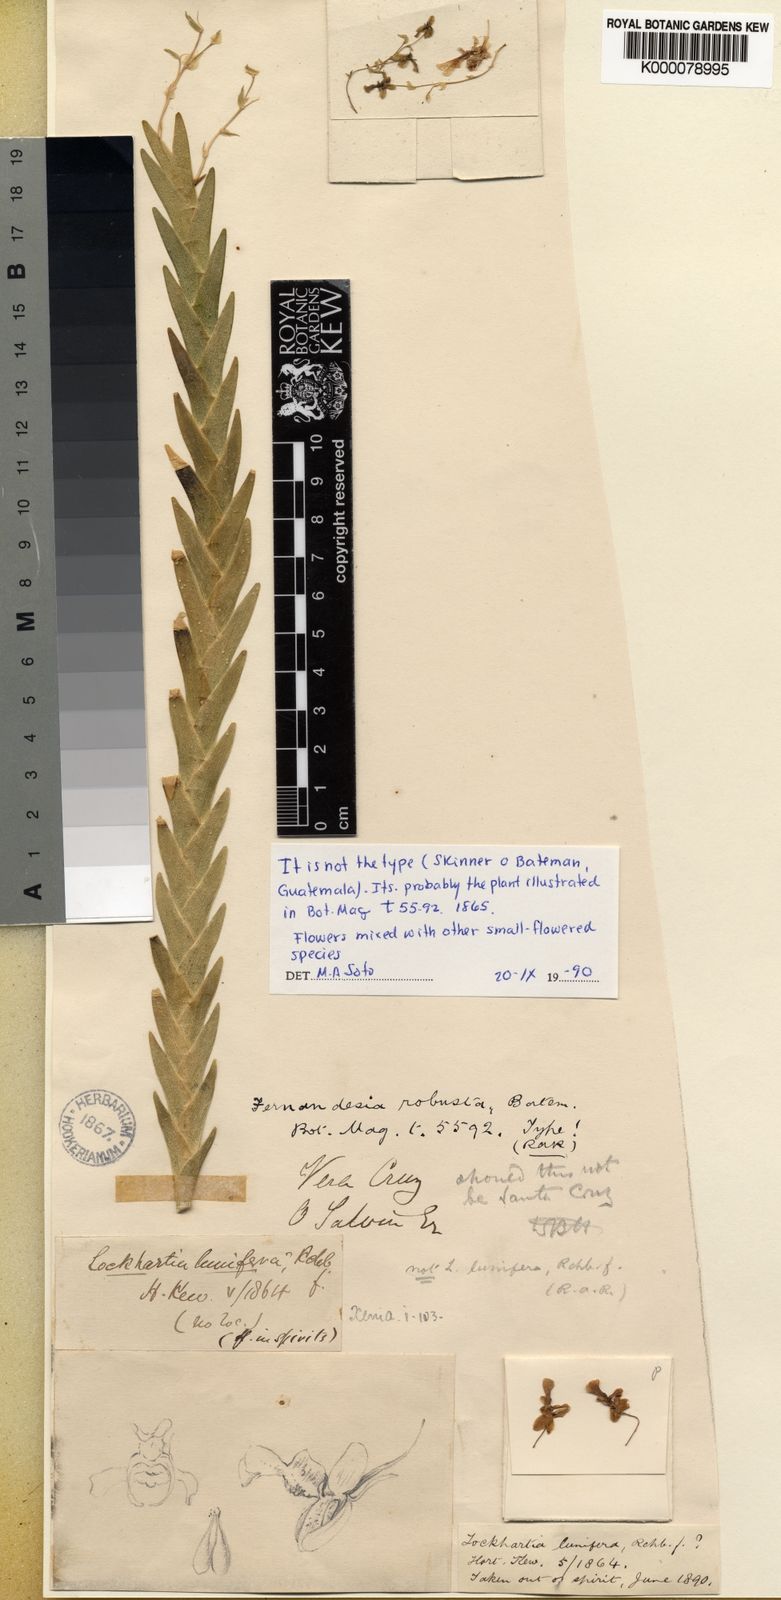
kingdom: Plantae
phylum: Tracheophyta
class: Liliopsida
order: Asparagales
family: Orchidaceae
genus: Lockhartia
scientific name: Lockhartia lunifera
